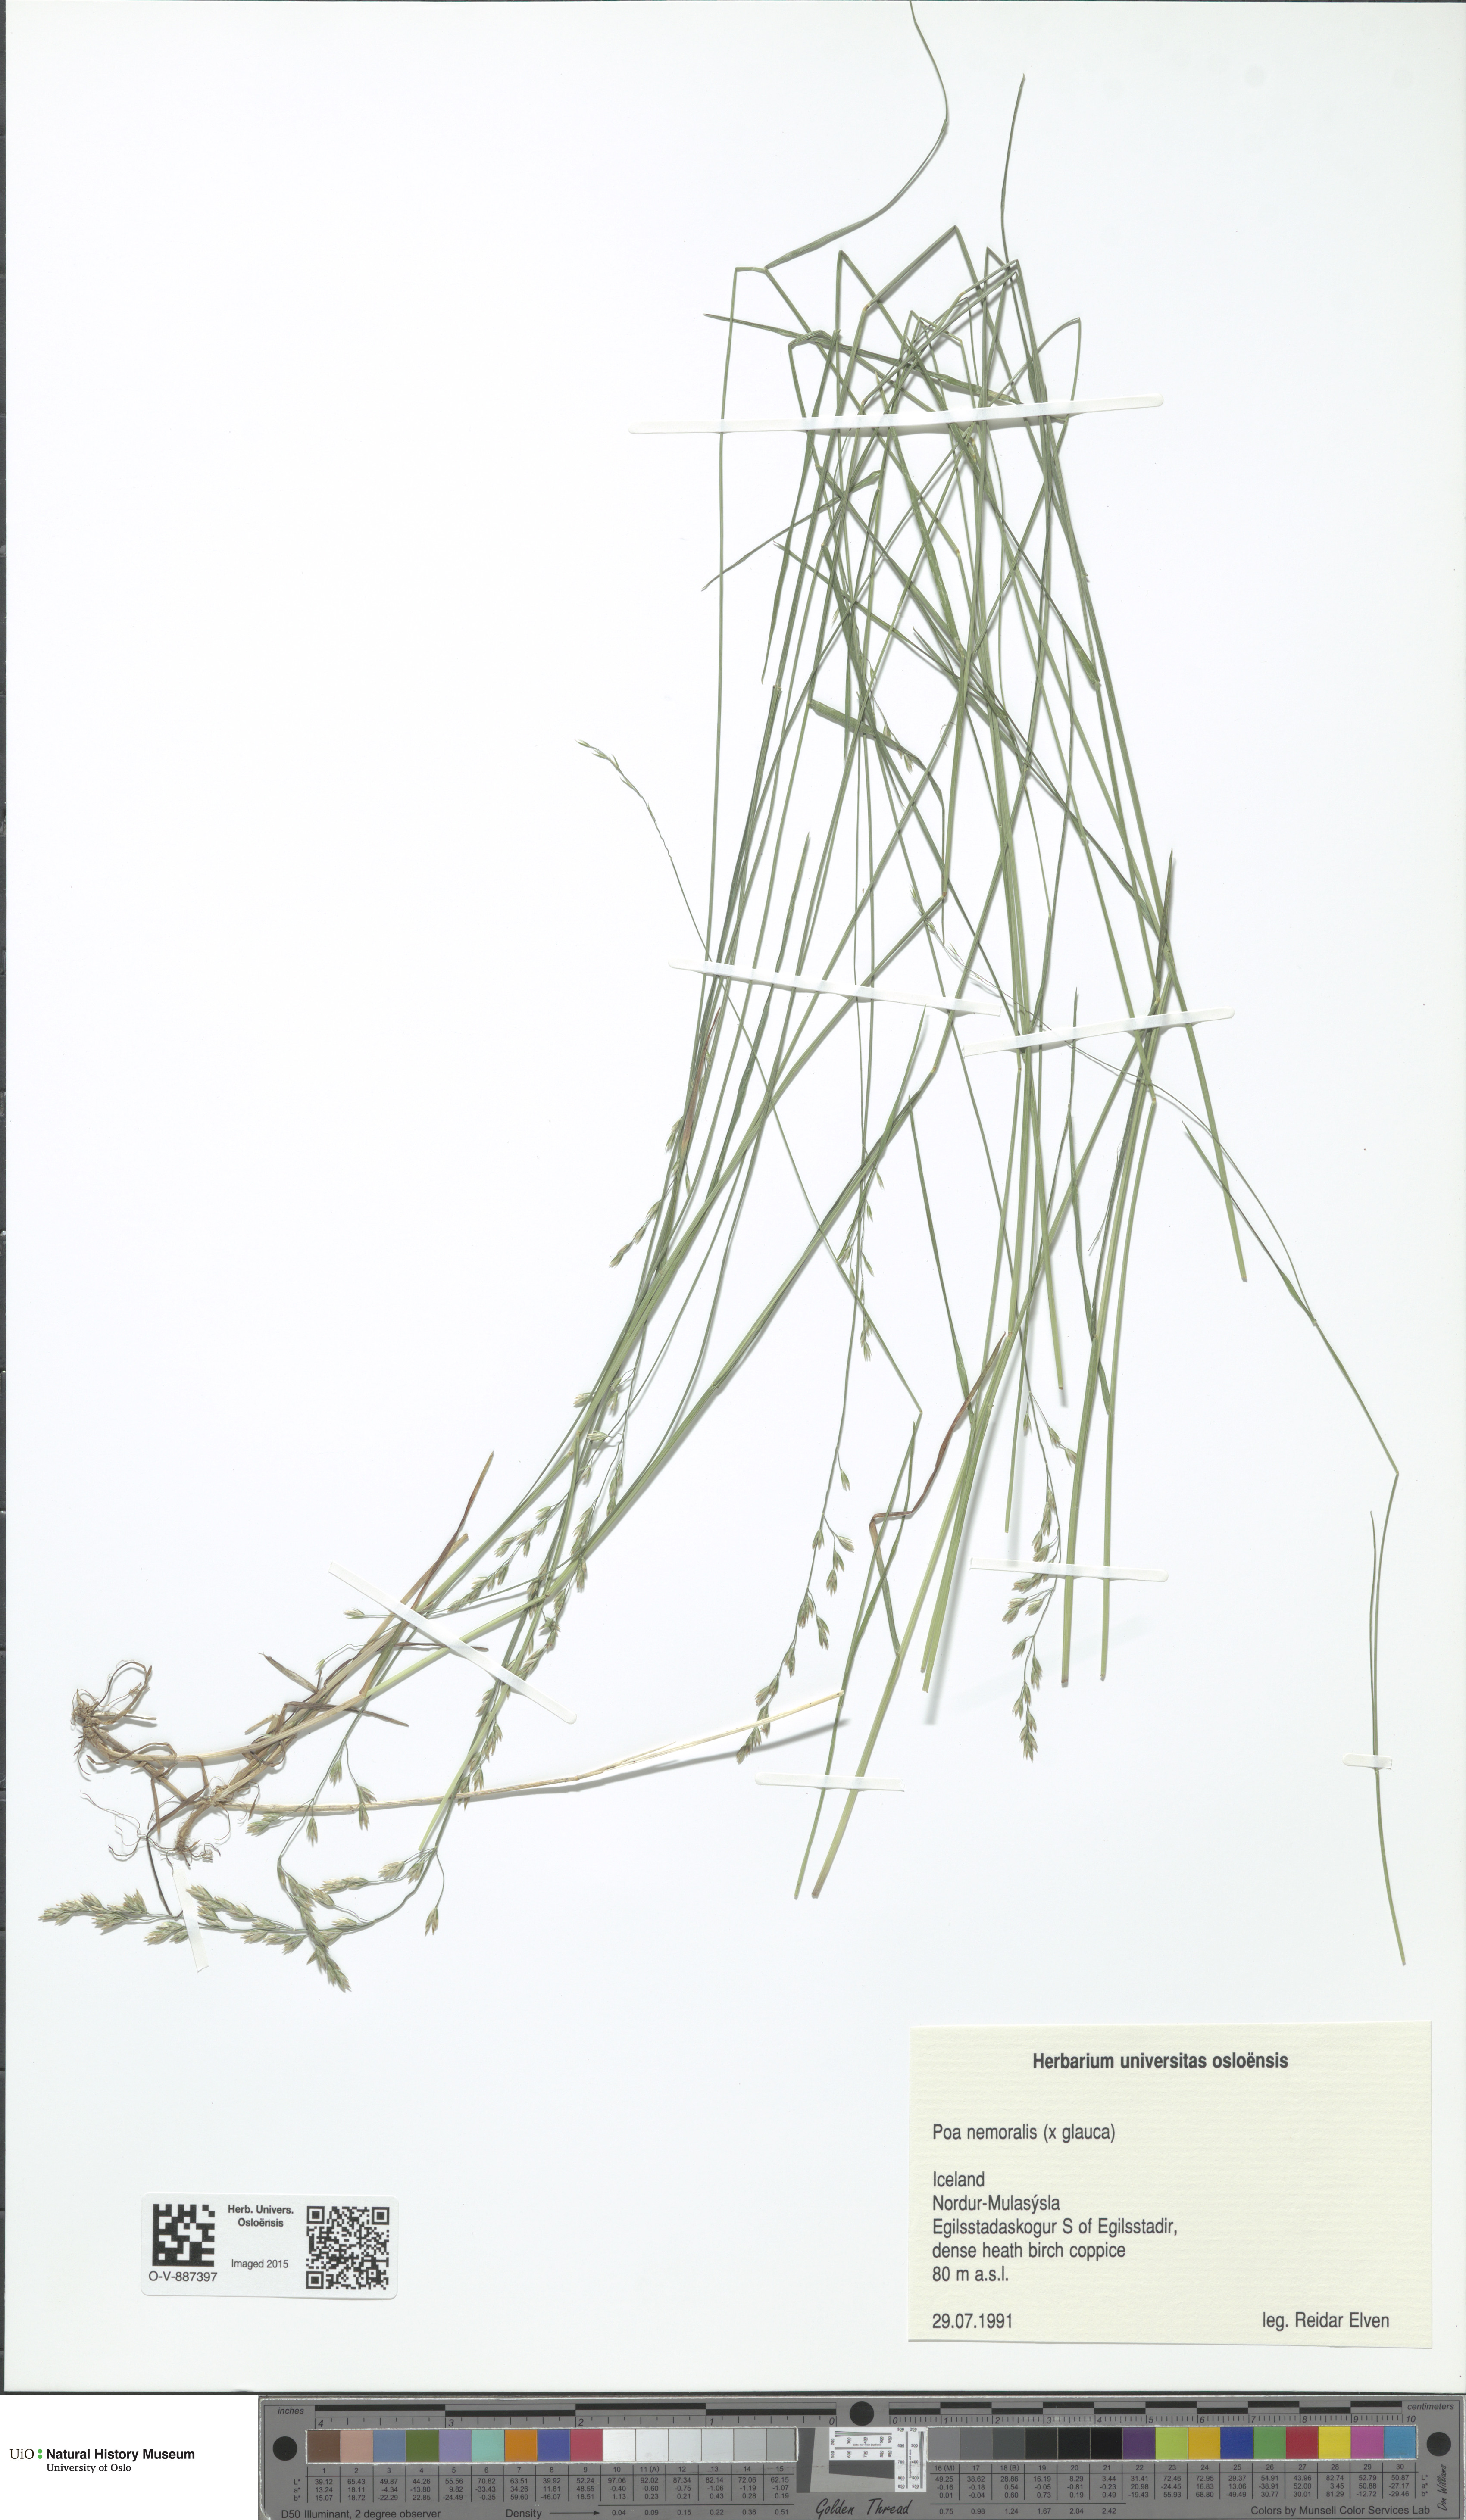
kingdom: Plantae
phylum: Tracheophyta
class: Liliopsida
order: Poales
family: Poaceae
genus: Poa
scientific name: Poa nemoralis
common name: Wood bluegrass
